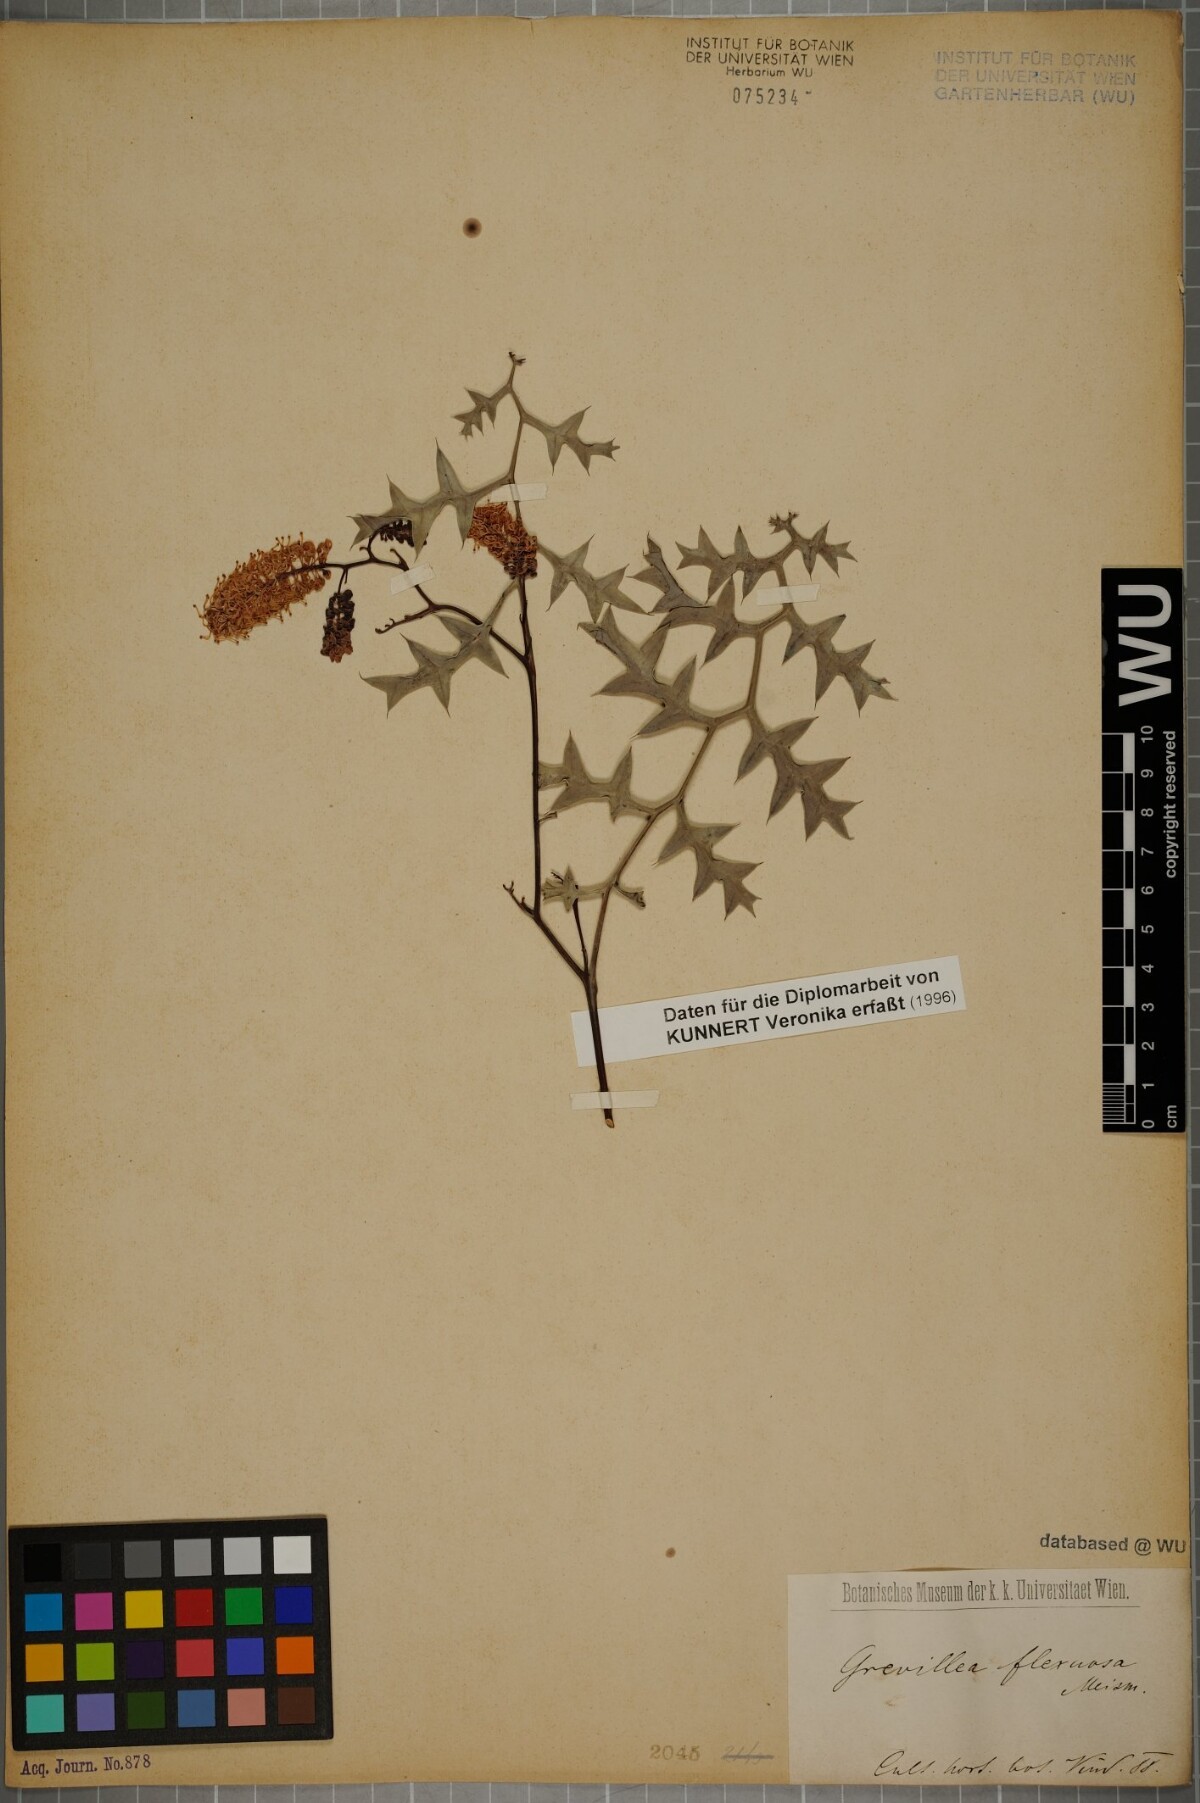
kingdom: Plantae
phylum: Tracheophyta
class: Magnoliopsida
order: Proteales
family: Proteaceae
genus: Grevillea
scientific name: Grevillea flexuosa
